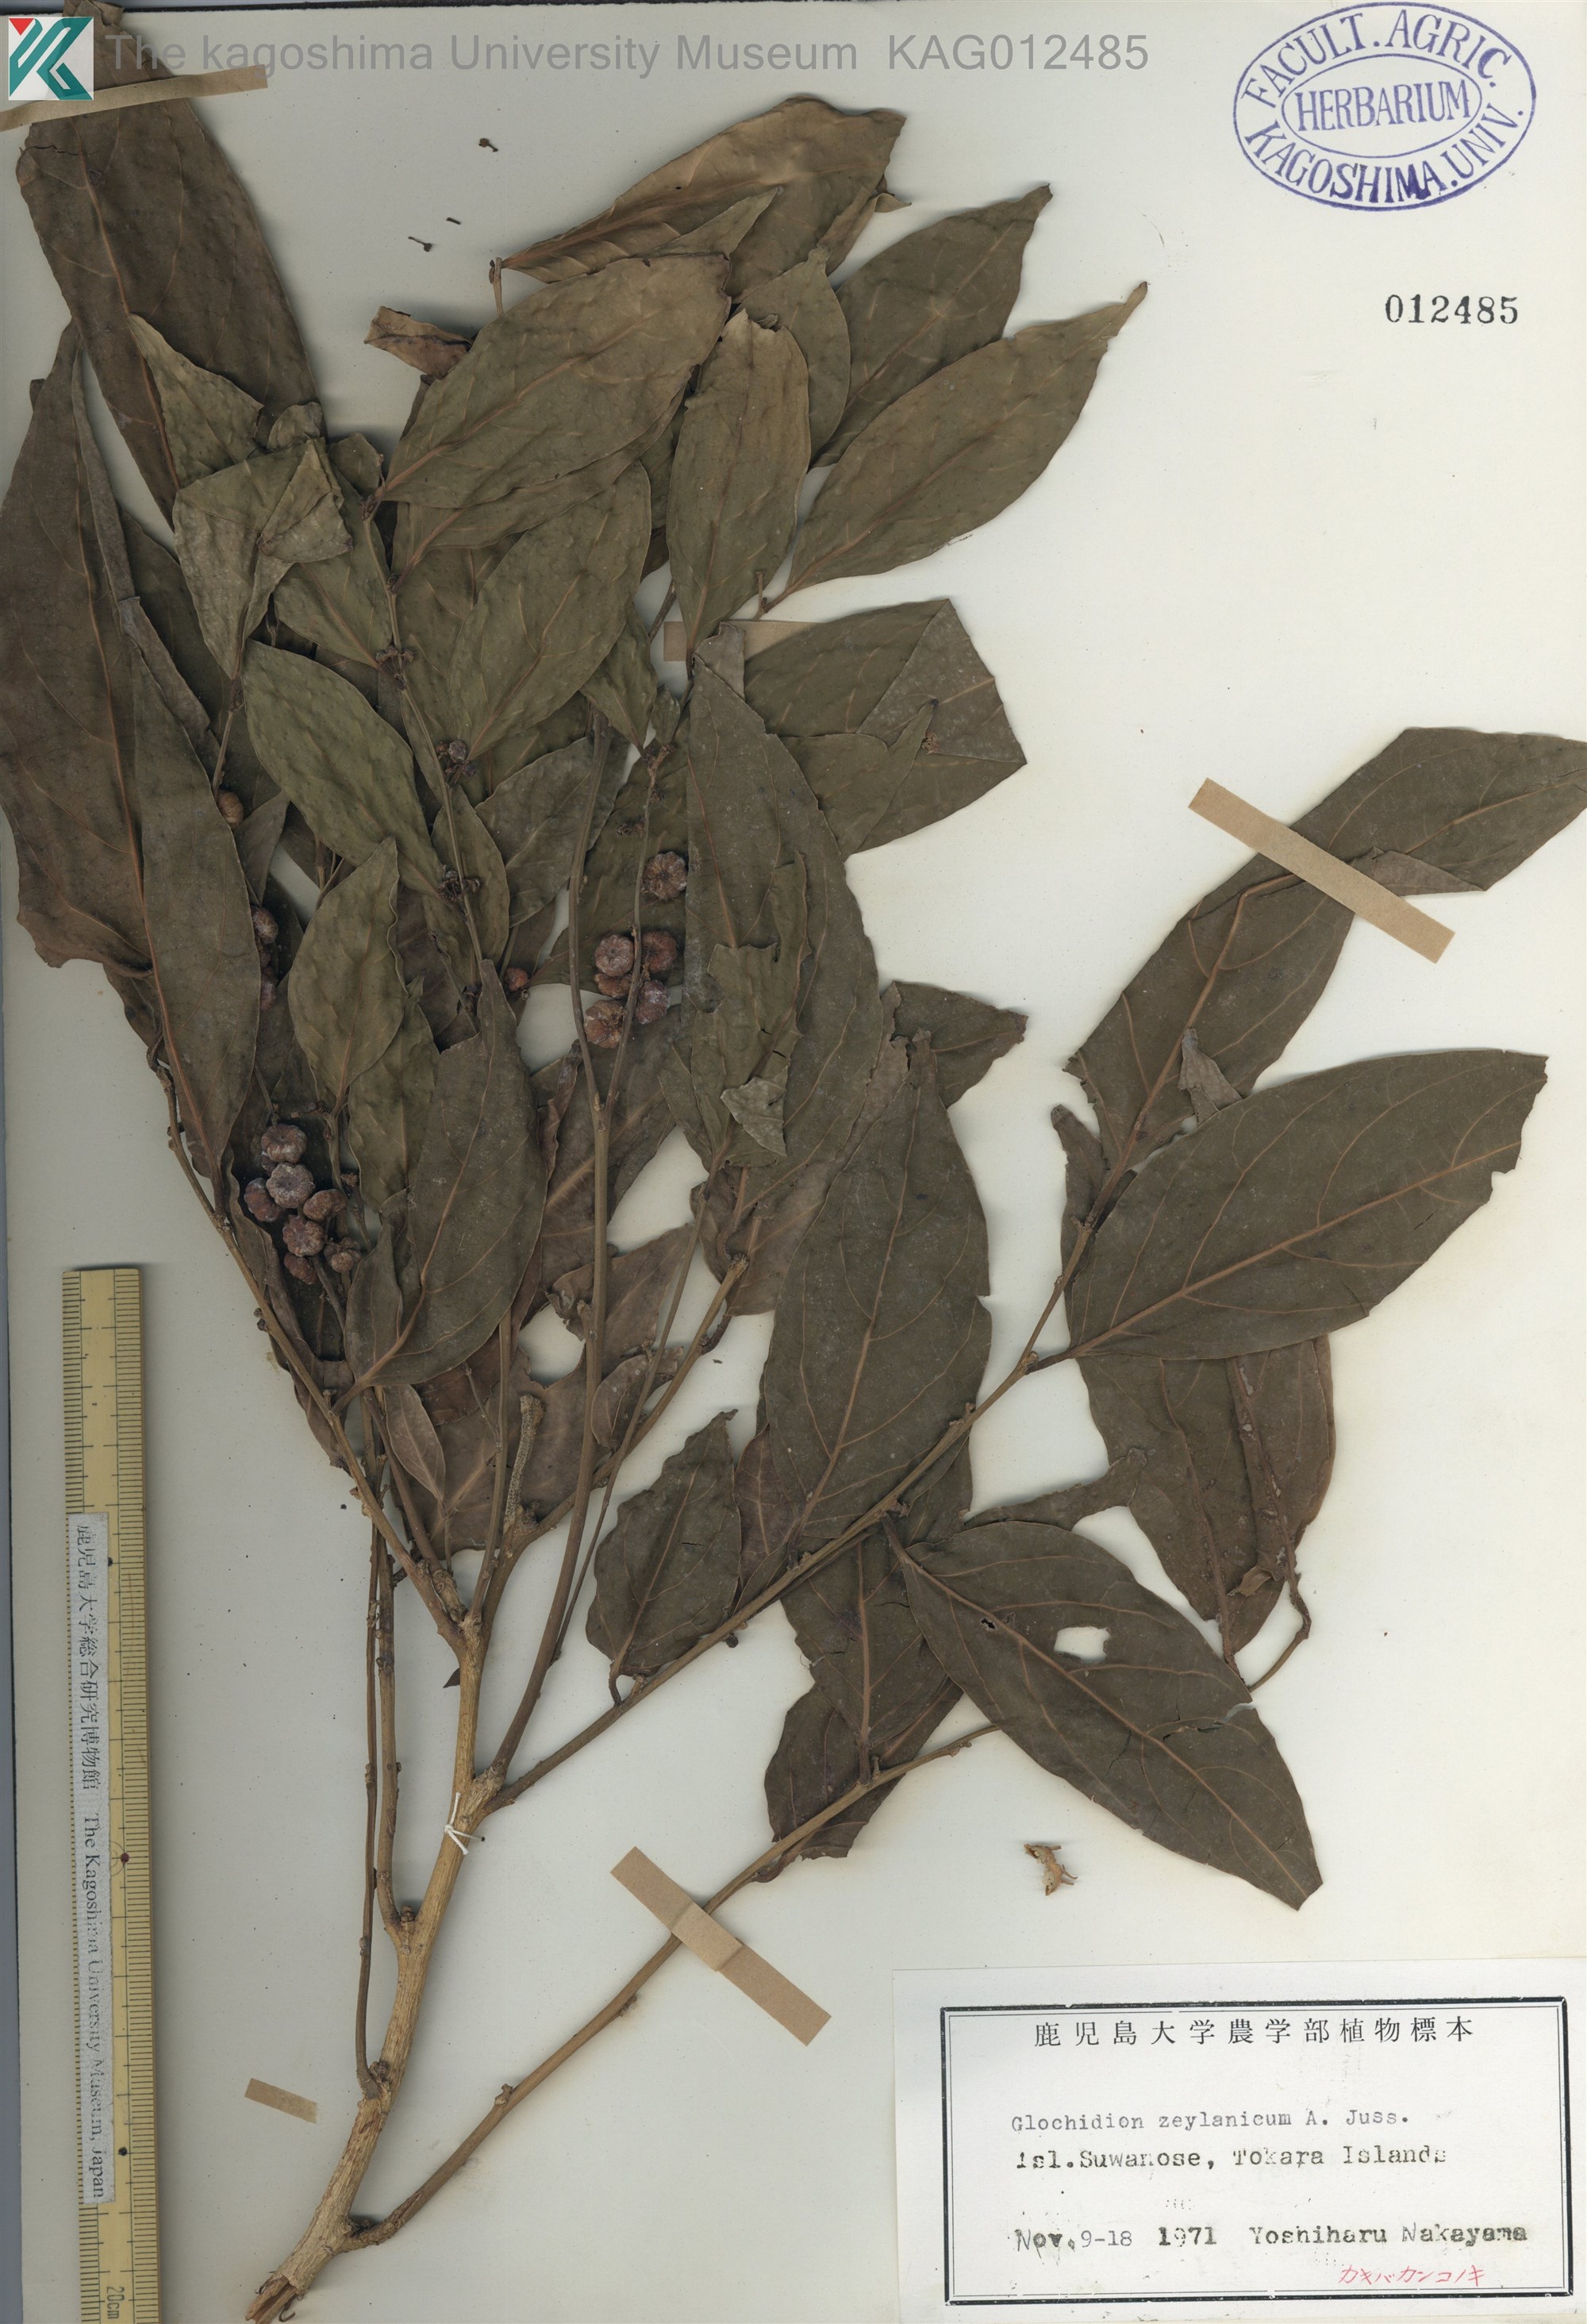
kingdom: Plantae
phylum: Tracheophyta
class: Magnoliopsida
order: Malpighiales
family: Phyllanthaceae
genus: Glochidion
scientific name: Glochidion zeylanicum
